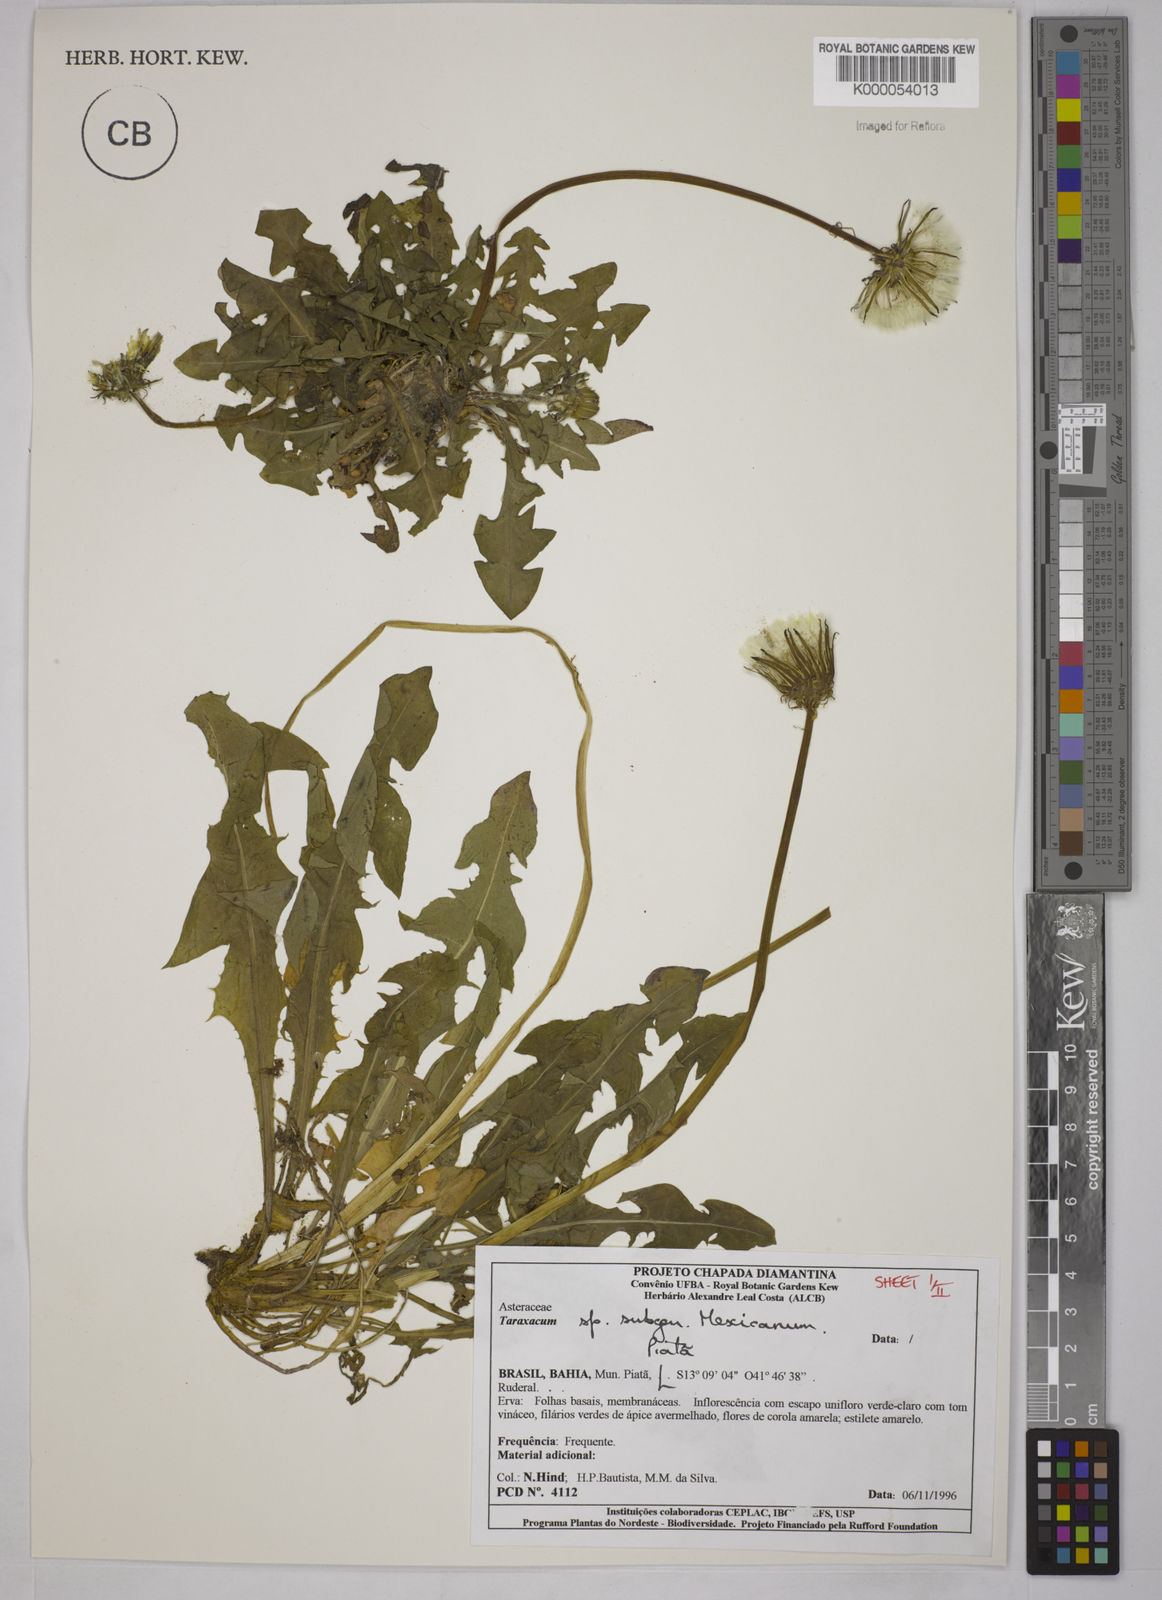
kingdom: Plantae
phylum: Tracheophyta
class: Magnoliopsida
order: Asterales
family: Asteraceae
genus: Taraxacum
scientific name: Taraxacum
